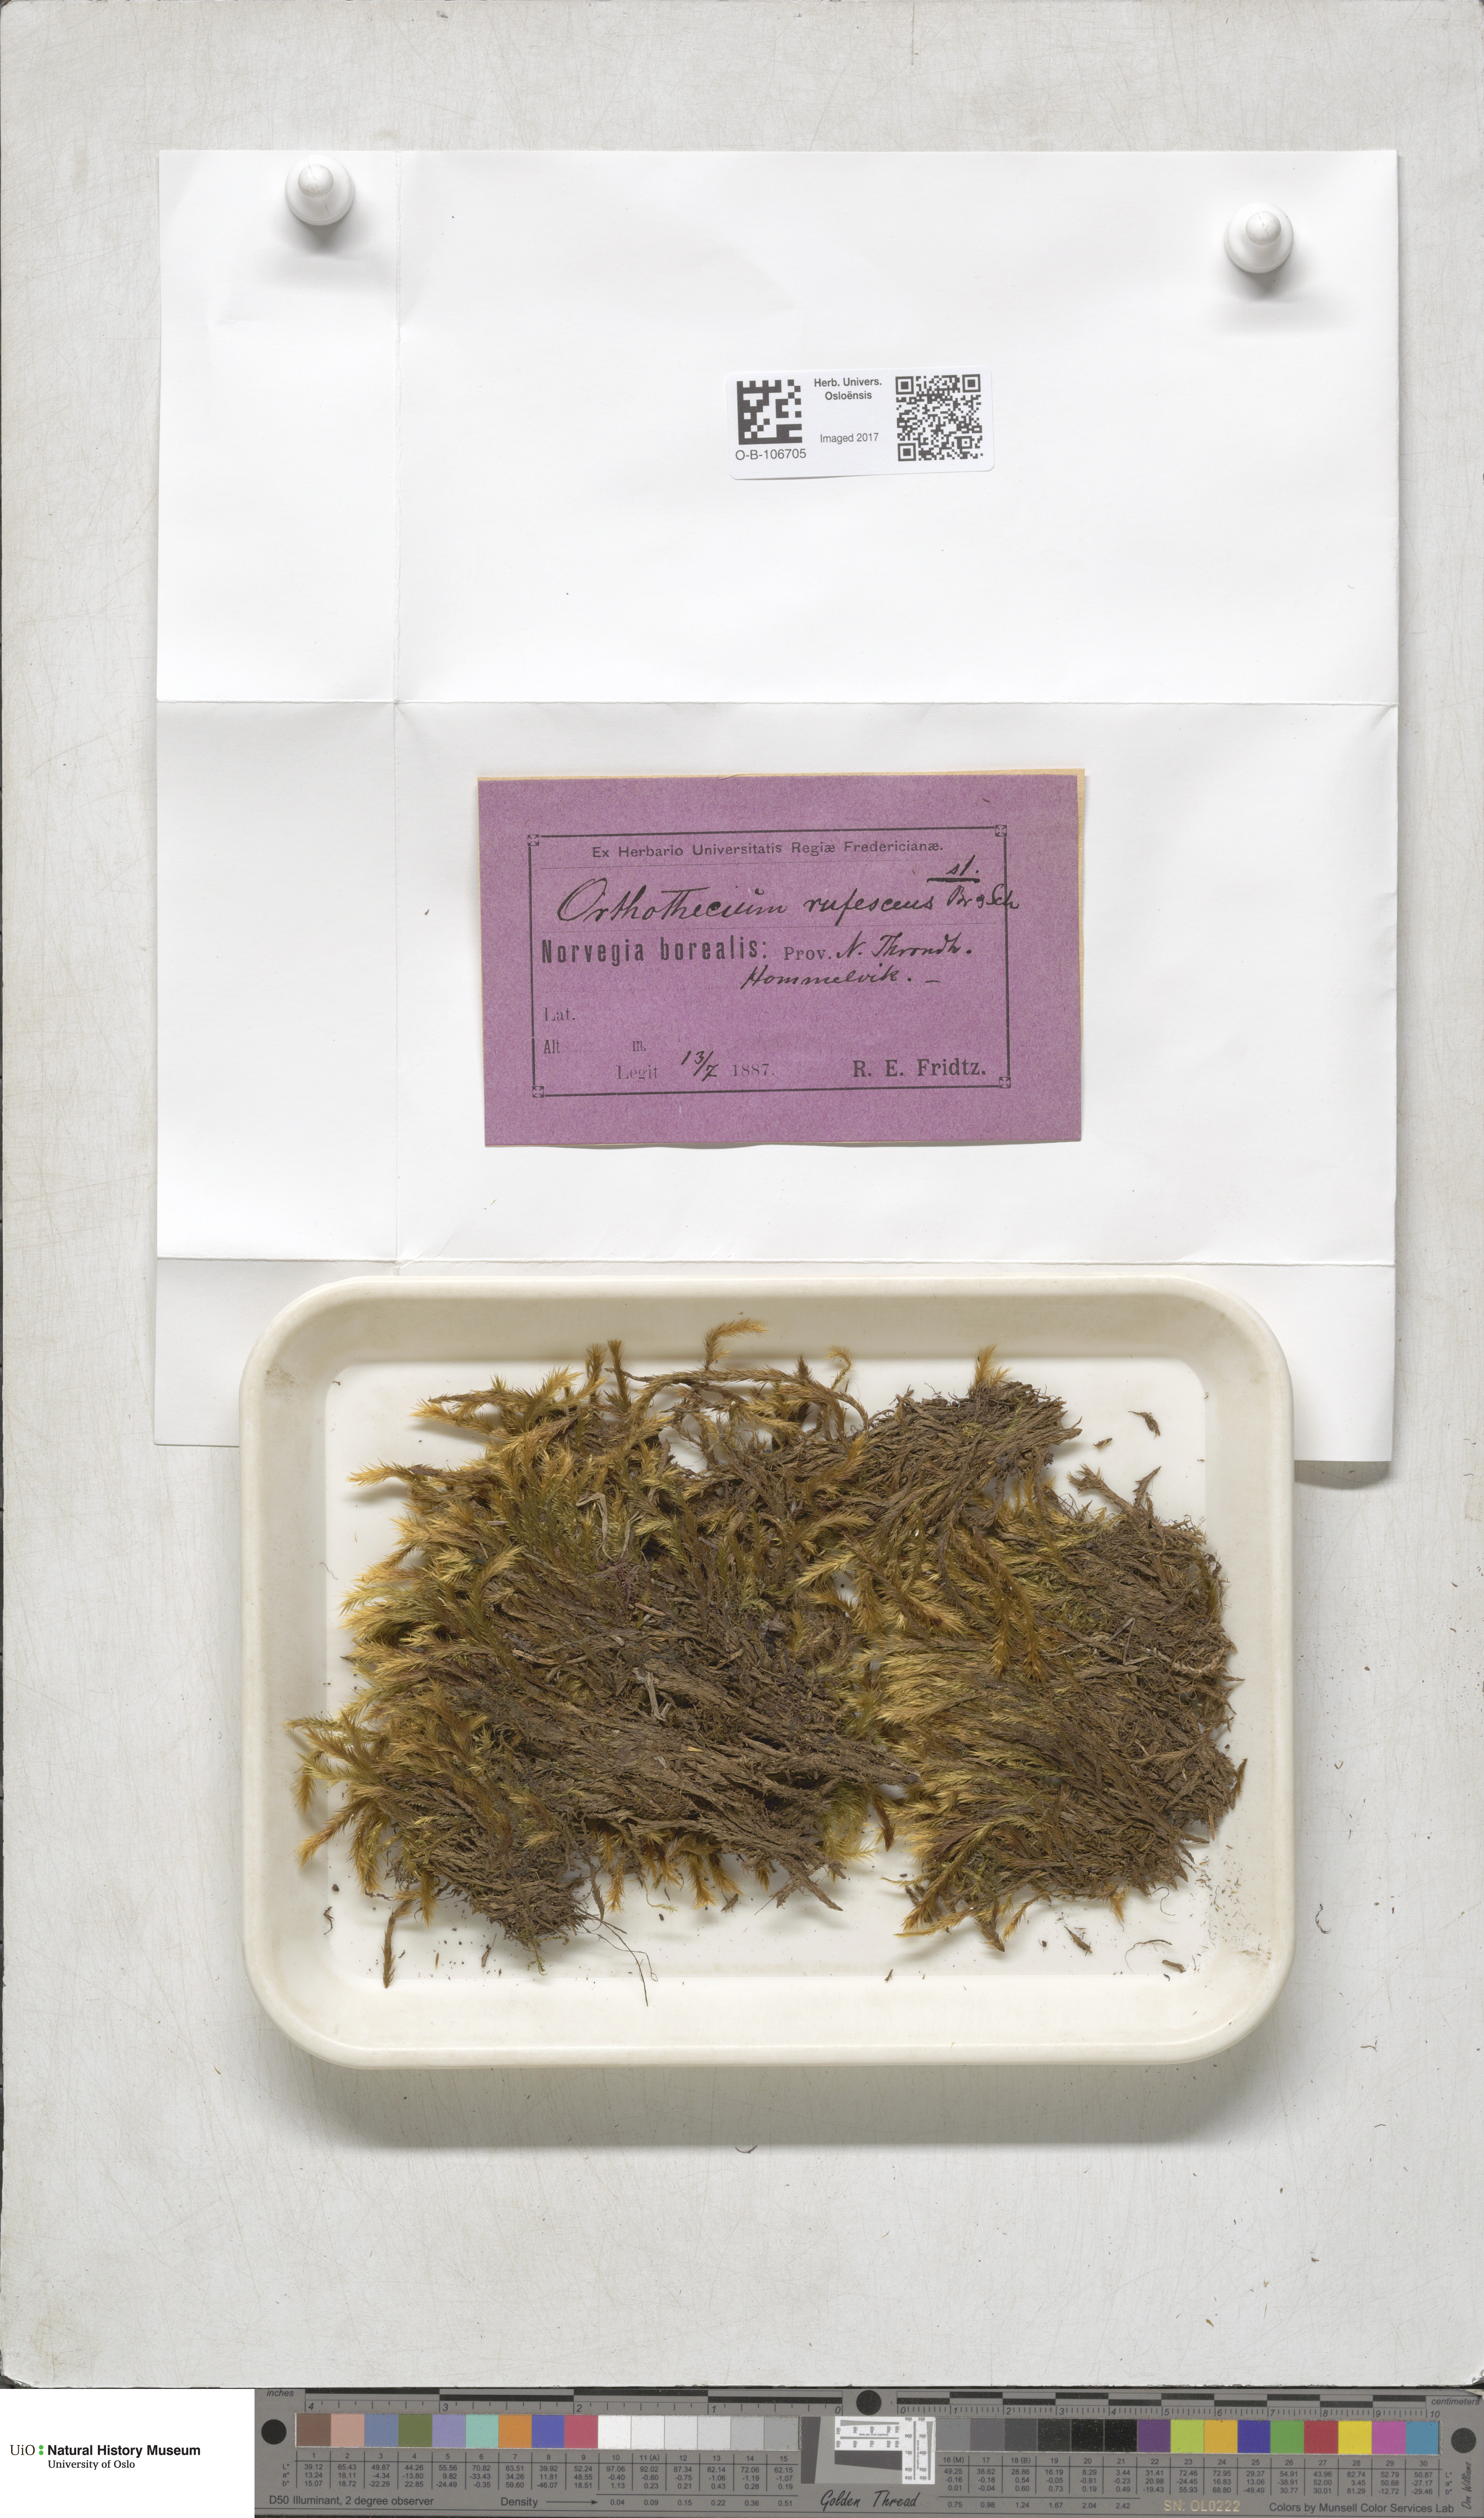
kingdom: Plantae
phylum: Bryophyta
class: Bryopsida
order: Hypnales
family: Plagiotheciaceae
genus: Orthothecium
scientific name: Orthothecium rufescens
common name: Red leskea
